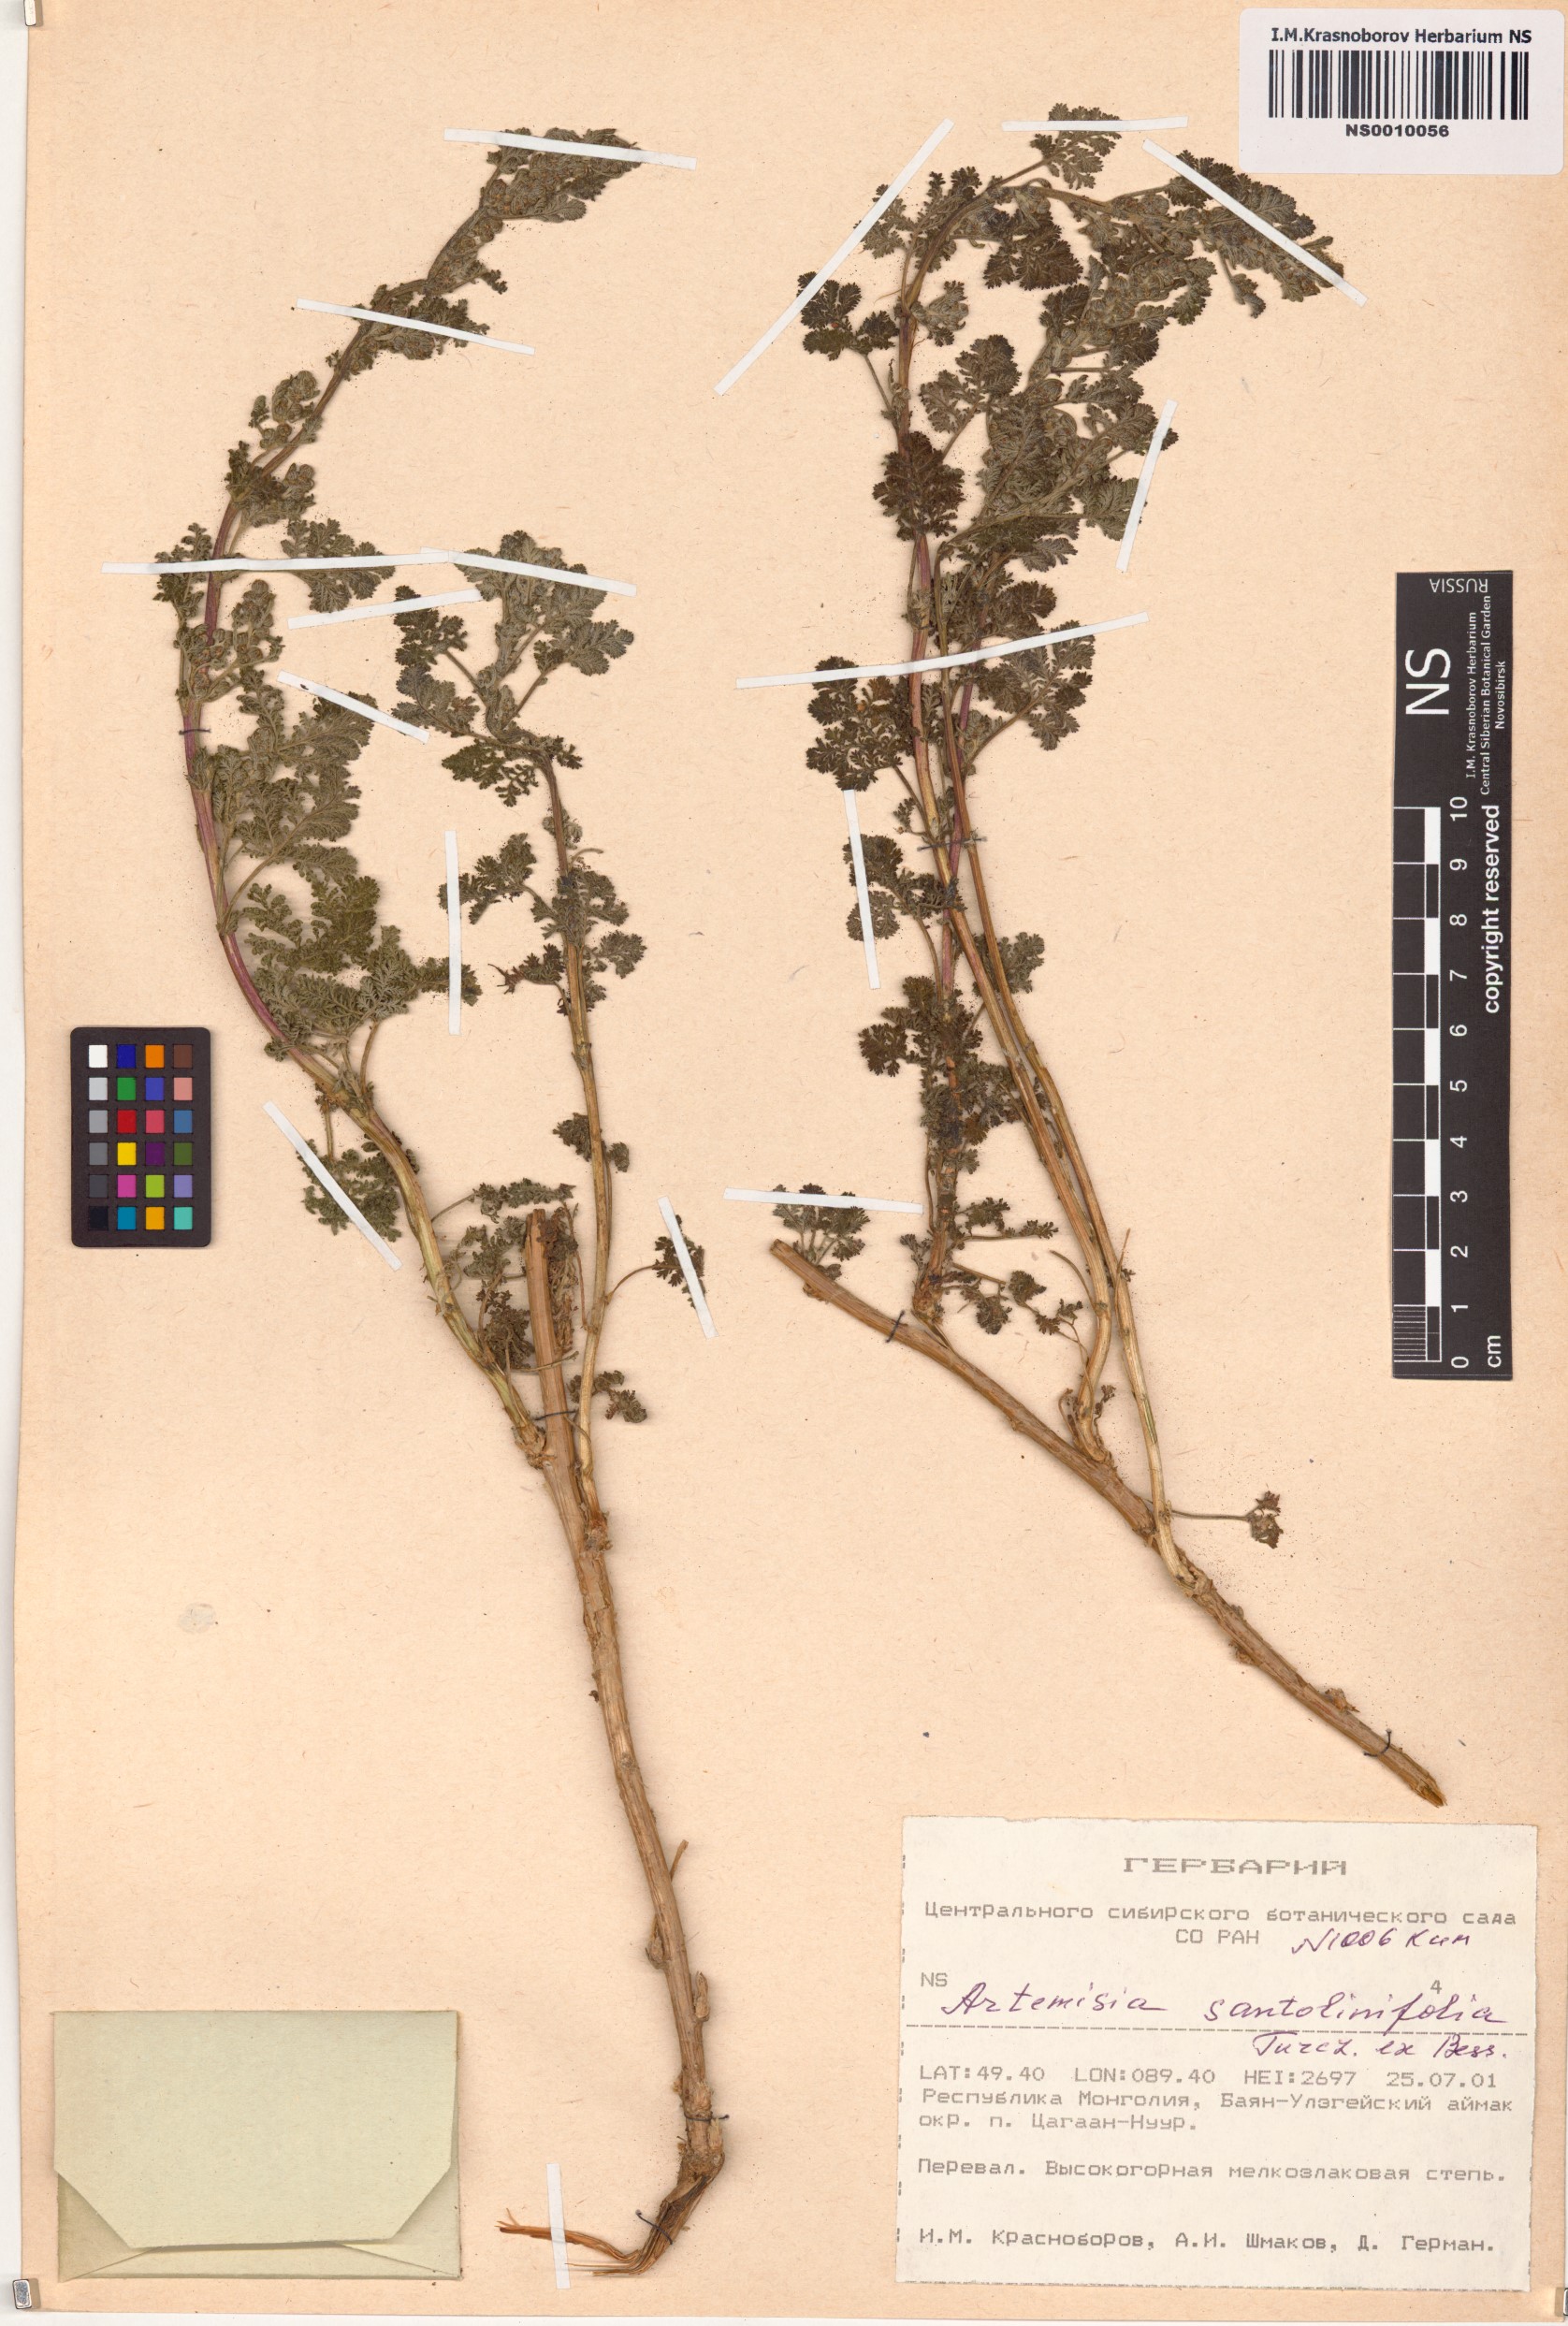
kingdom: Plantae
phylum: Tracheophyta
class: Magnoliopsida
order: Asterales
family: Asteraceae
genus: Artemisia
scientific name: Artemisia stechmanniana
